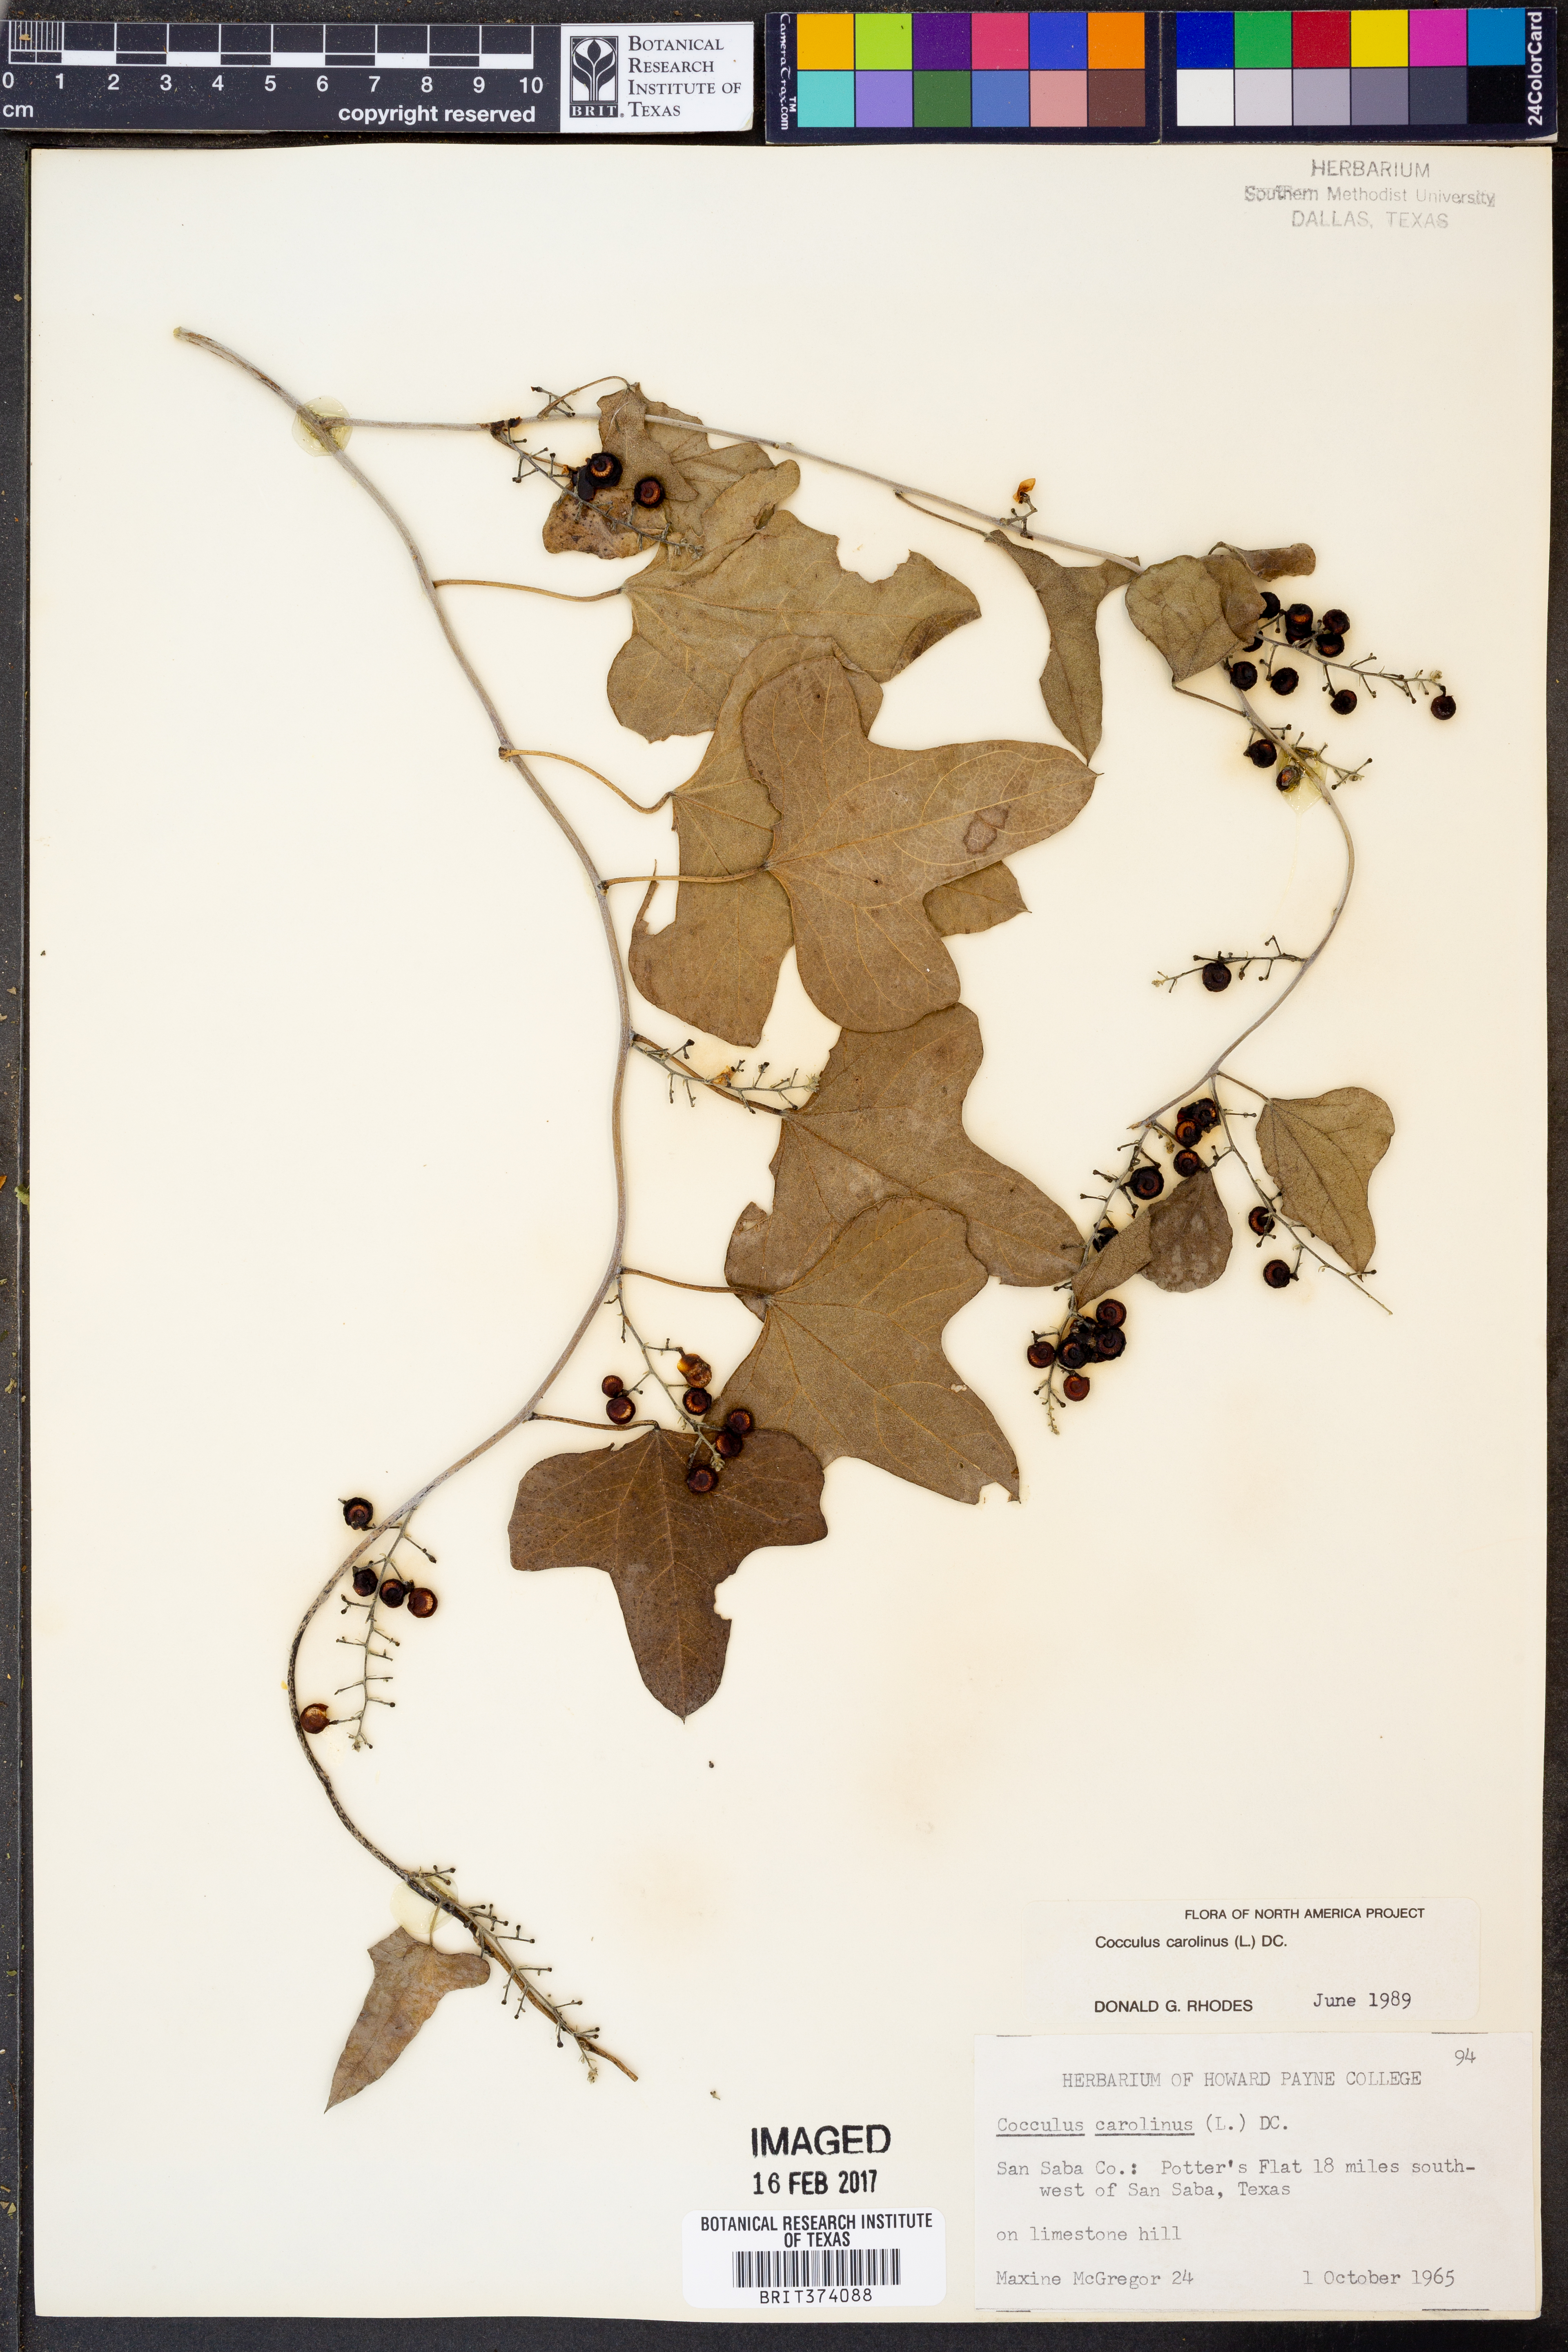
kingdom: Plantae
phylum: Tracheophyta
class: Magnoliopsida
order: Ranunculales
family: Menispermaceae
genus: Cocculus
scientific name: Cocculus carolinus
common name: Carolina moonseed
